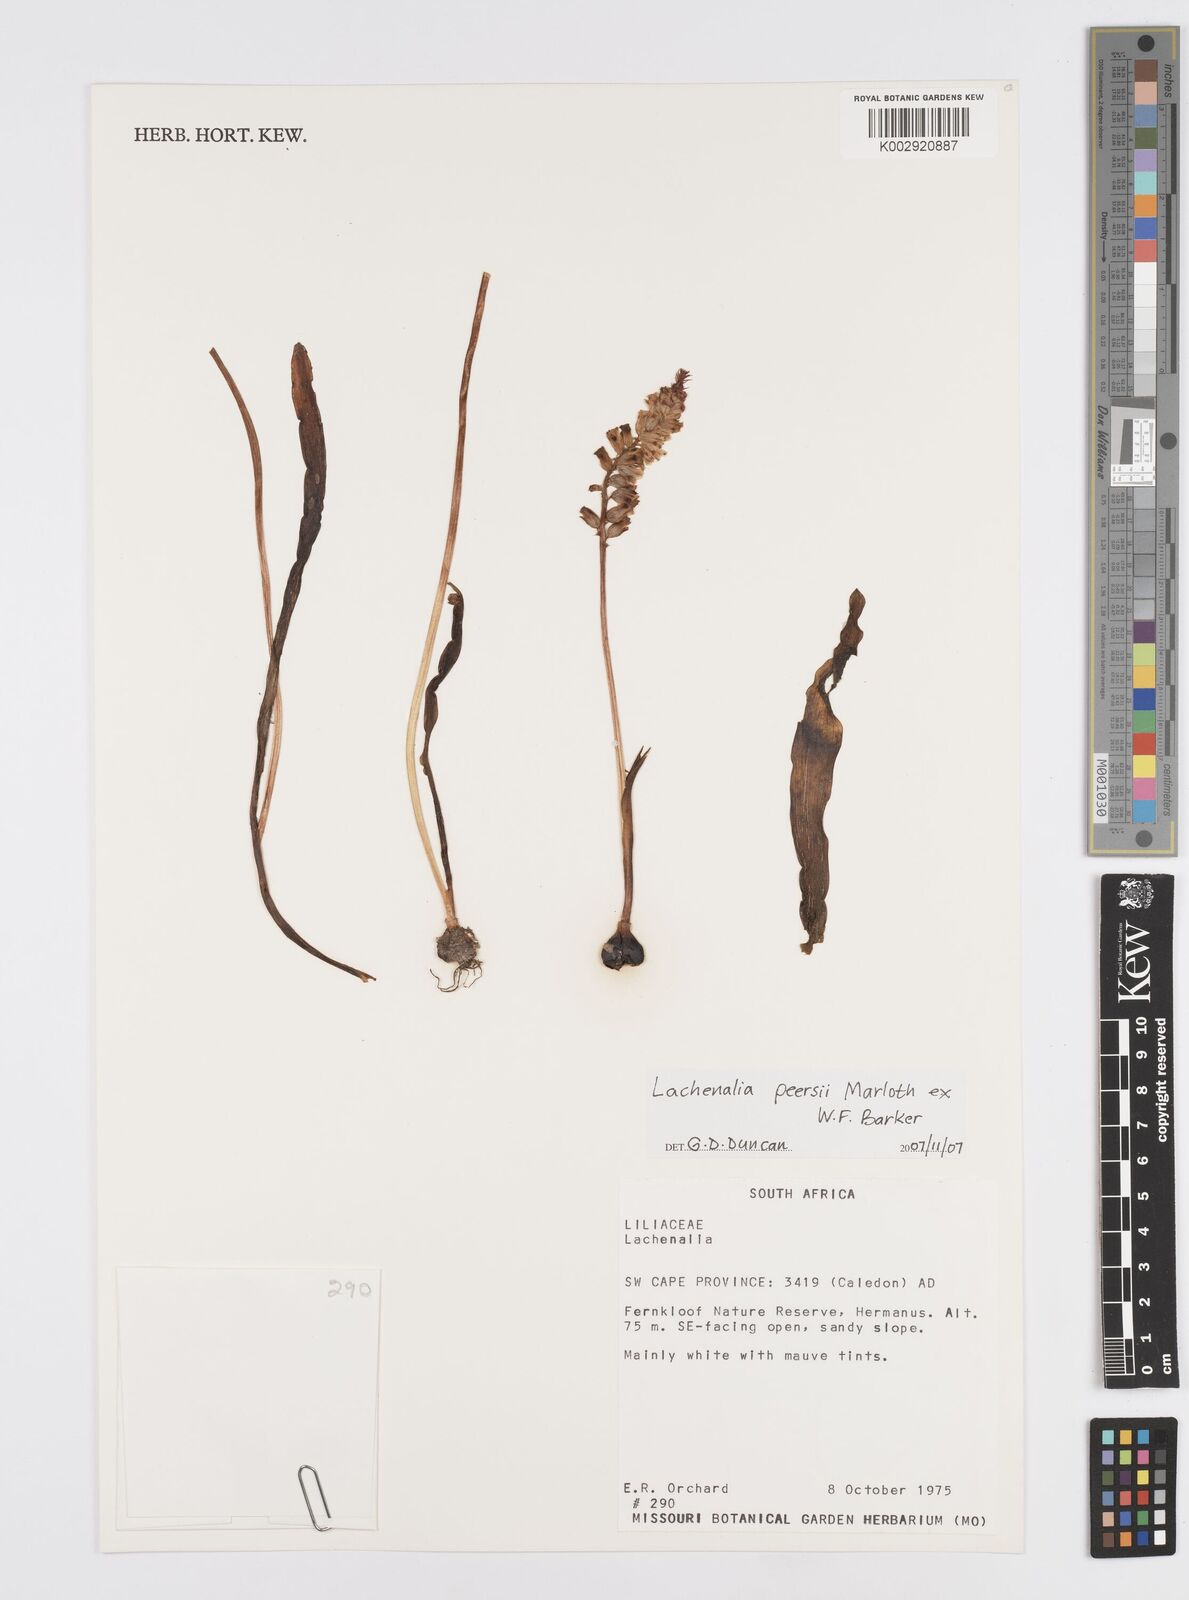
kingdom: Plantae
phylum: Tracheophyta
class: Liliopsida
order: Asparagales
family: Asparagaceae
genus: Lachenalia
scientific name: Lachenalia peersii
